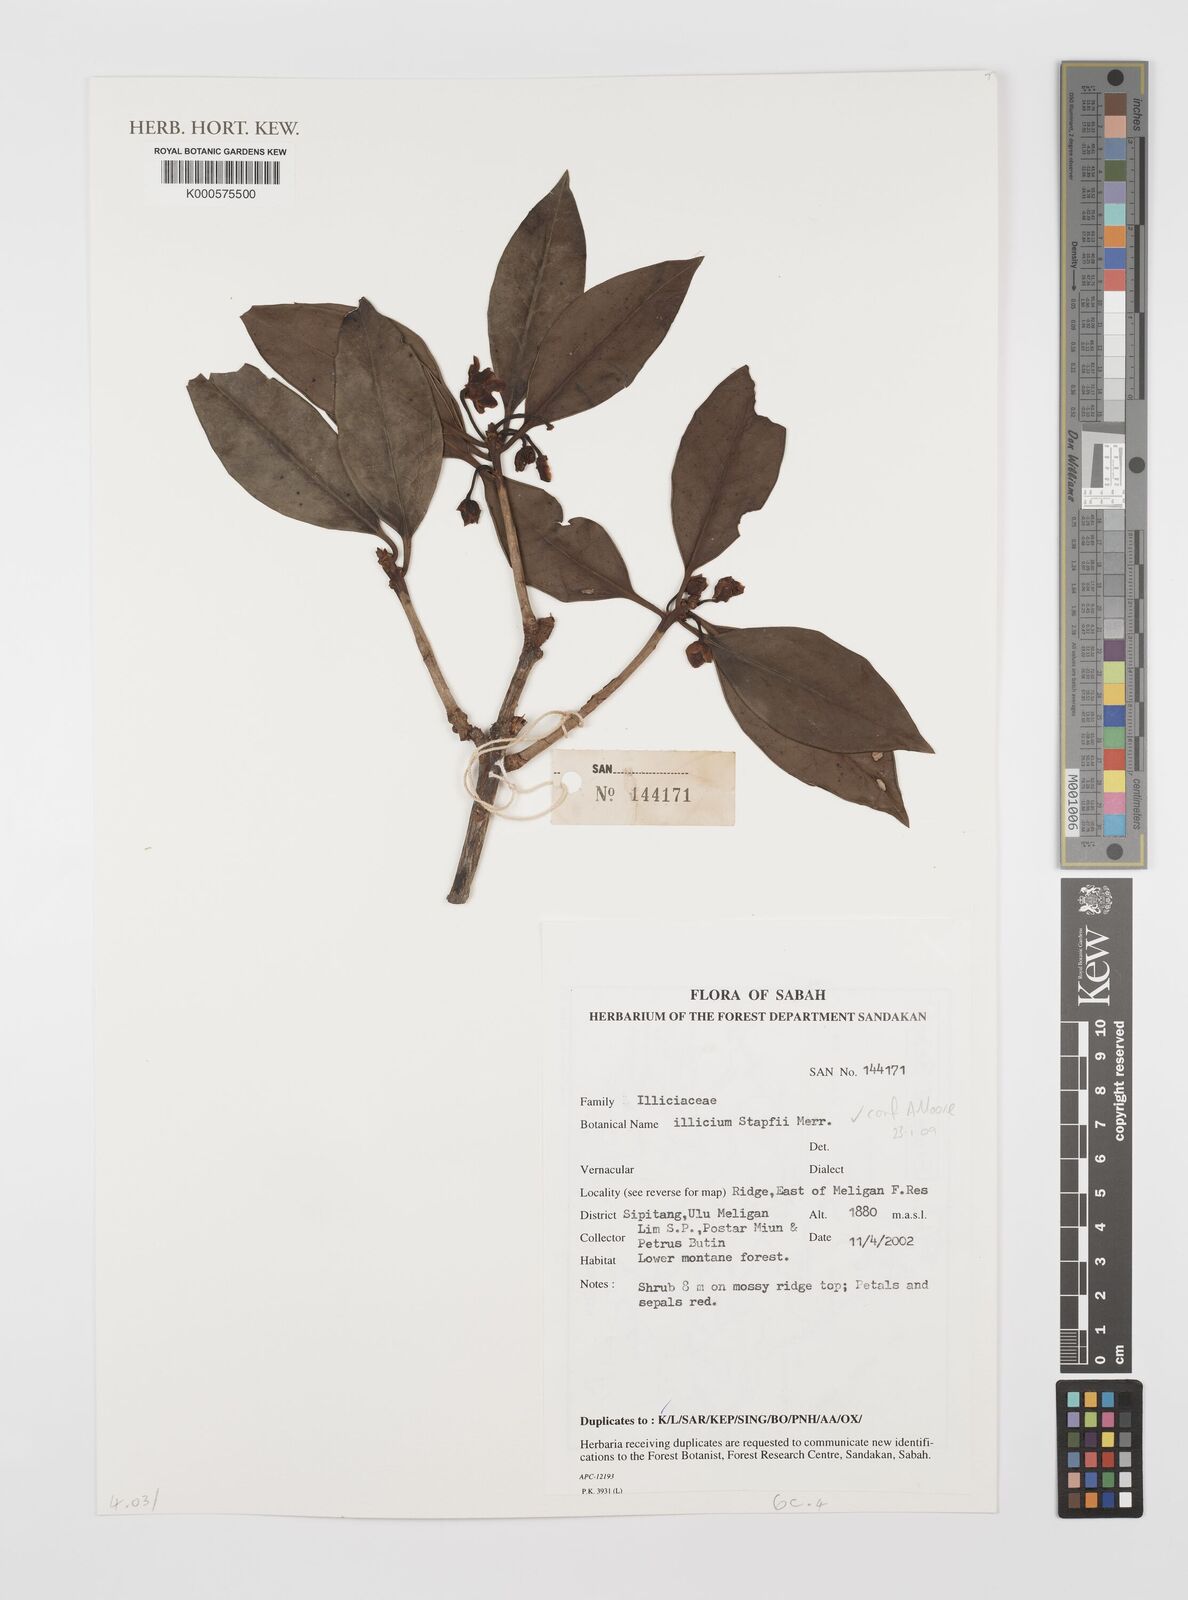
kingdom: Plantae
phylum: Tracheophyta
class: Magnoliopsida
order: Austrobaileyales
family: Schisandraceae
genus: Illicium
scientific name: Illicium stapfii
